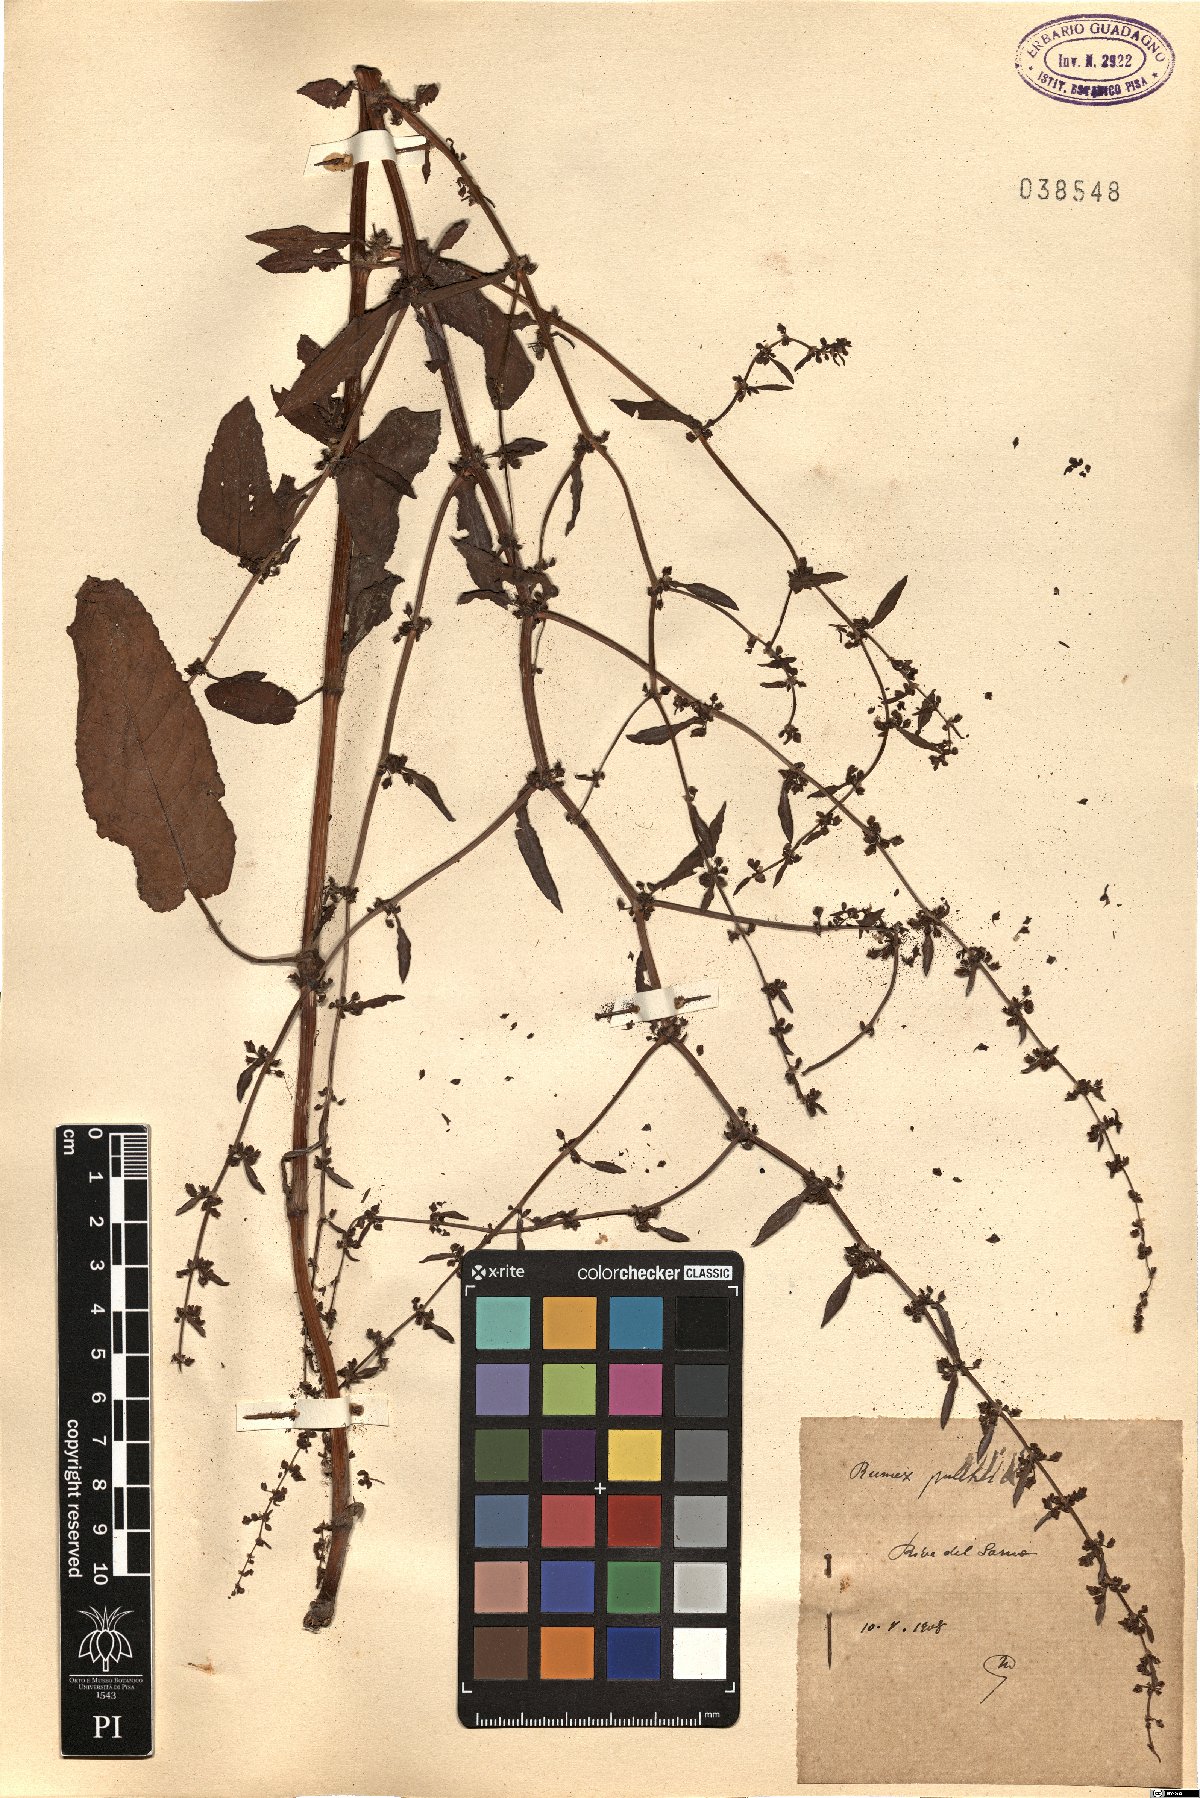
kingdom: Plantae
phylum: Tracheophyta
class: Magnoliopsida
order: Caryophyllales
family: Polygonaceae
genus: Rumex
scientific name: Rumex pulcher
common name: Fiddle dock
